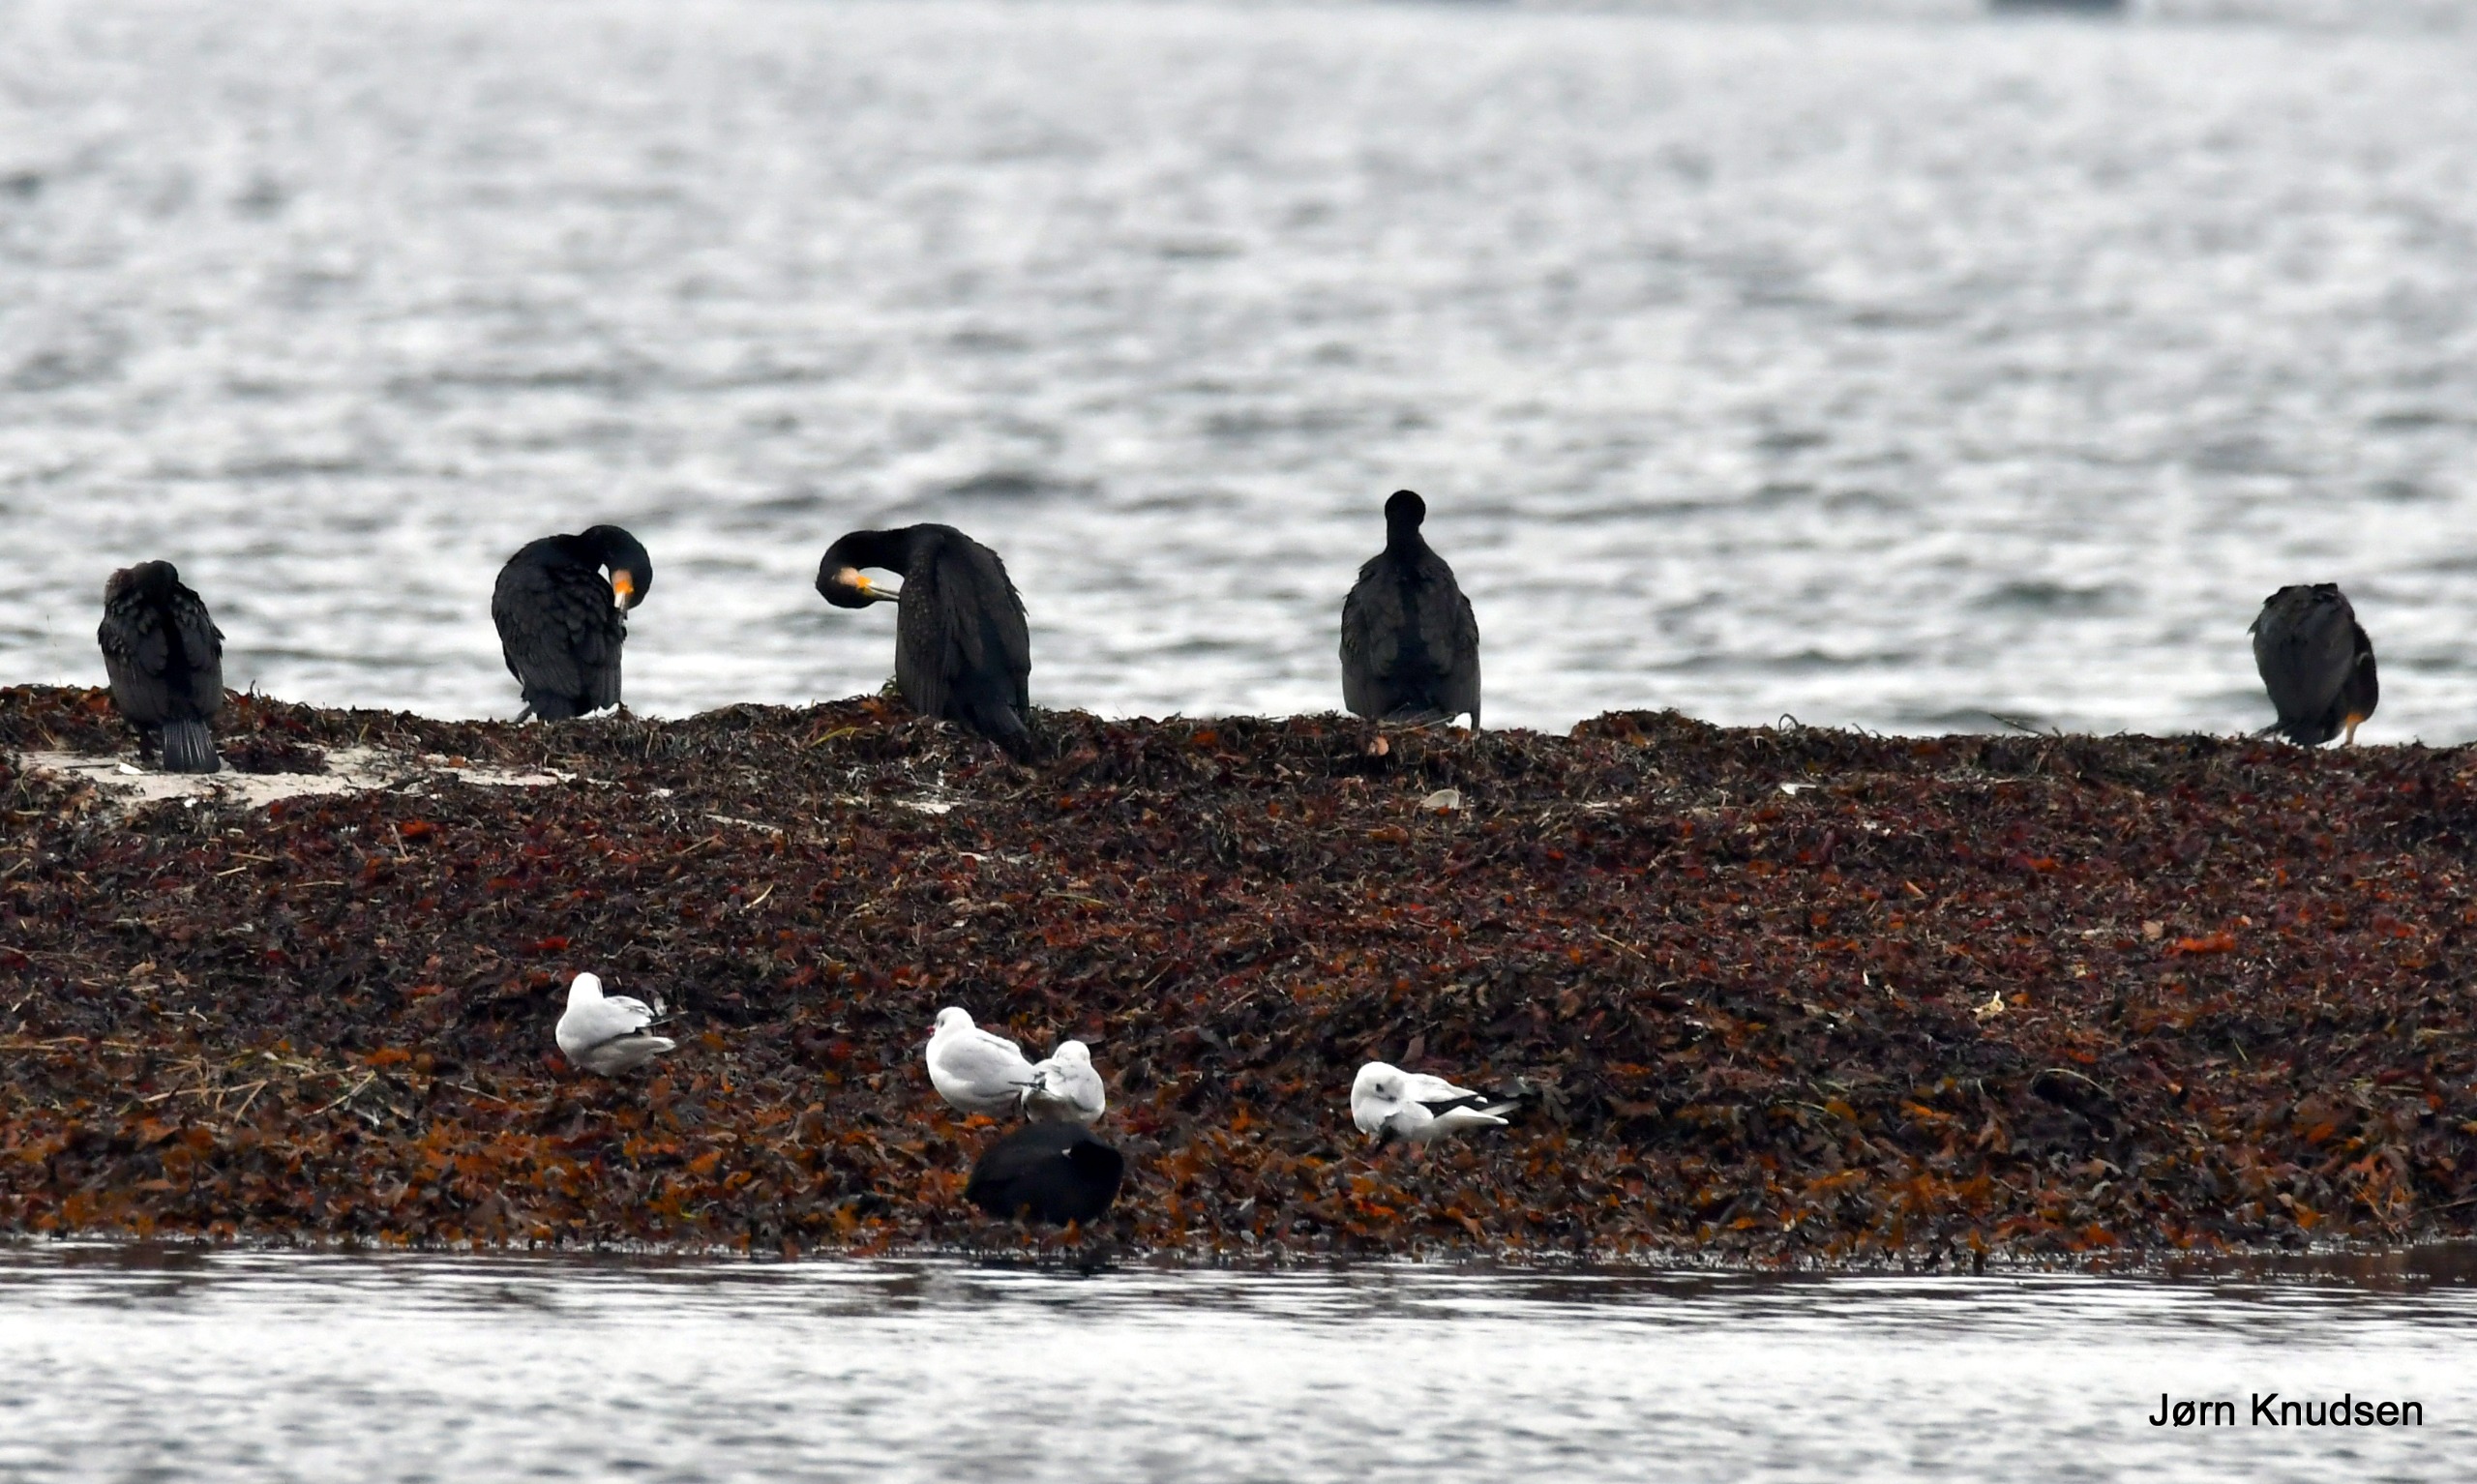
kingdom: Animalia
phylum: Chordata
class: Aves
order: Suliformes
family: Phalacrocoracidae
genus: Phalacrocorax
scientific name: Phalacrocorax carbo
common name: Skarv
